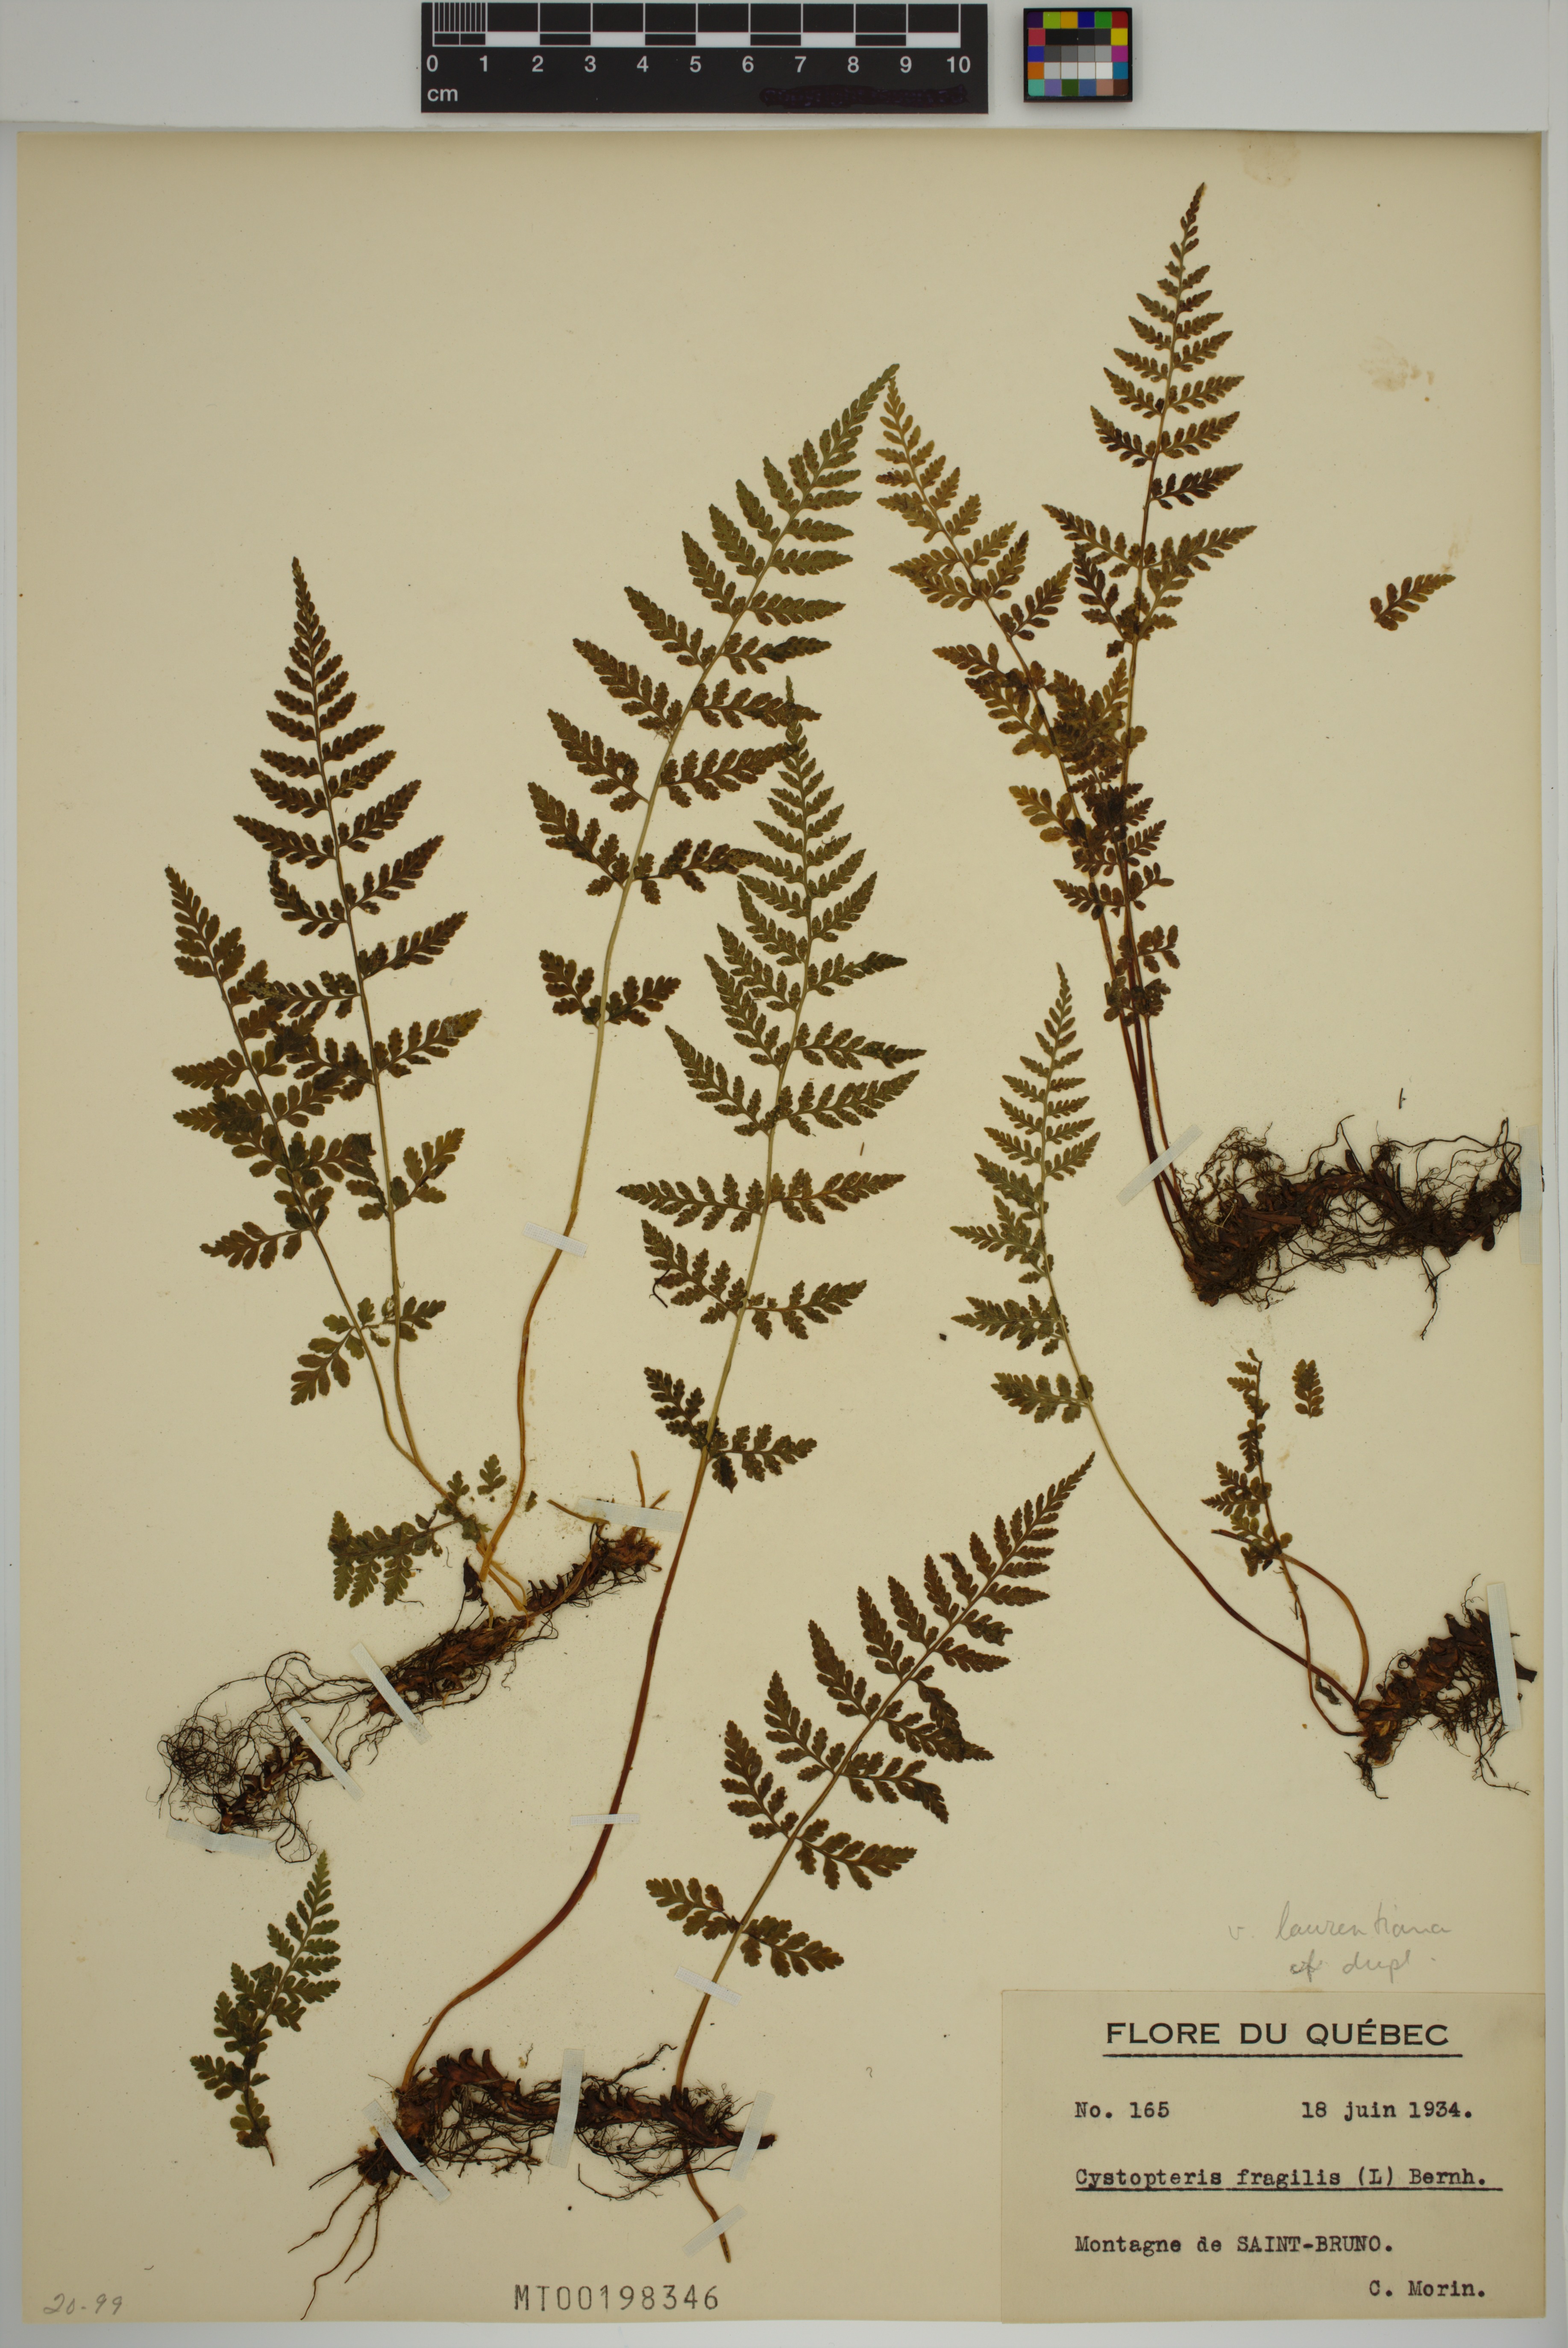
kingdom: Plantae
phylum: Tracheophyta
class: Polypodiopsida
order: Polypodiales
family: Cystopteridaceae
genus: Cystopteris
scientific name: Cystopteris laurentiana
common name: Blasdell's laurentian bladder fern
